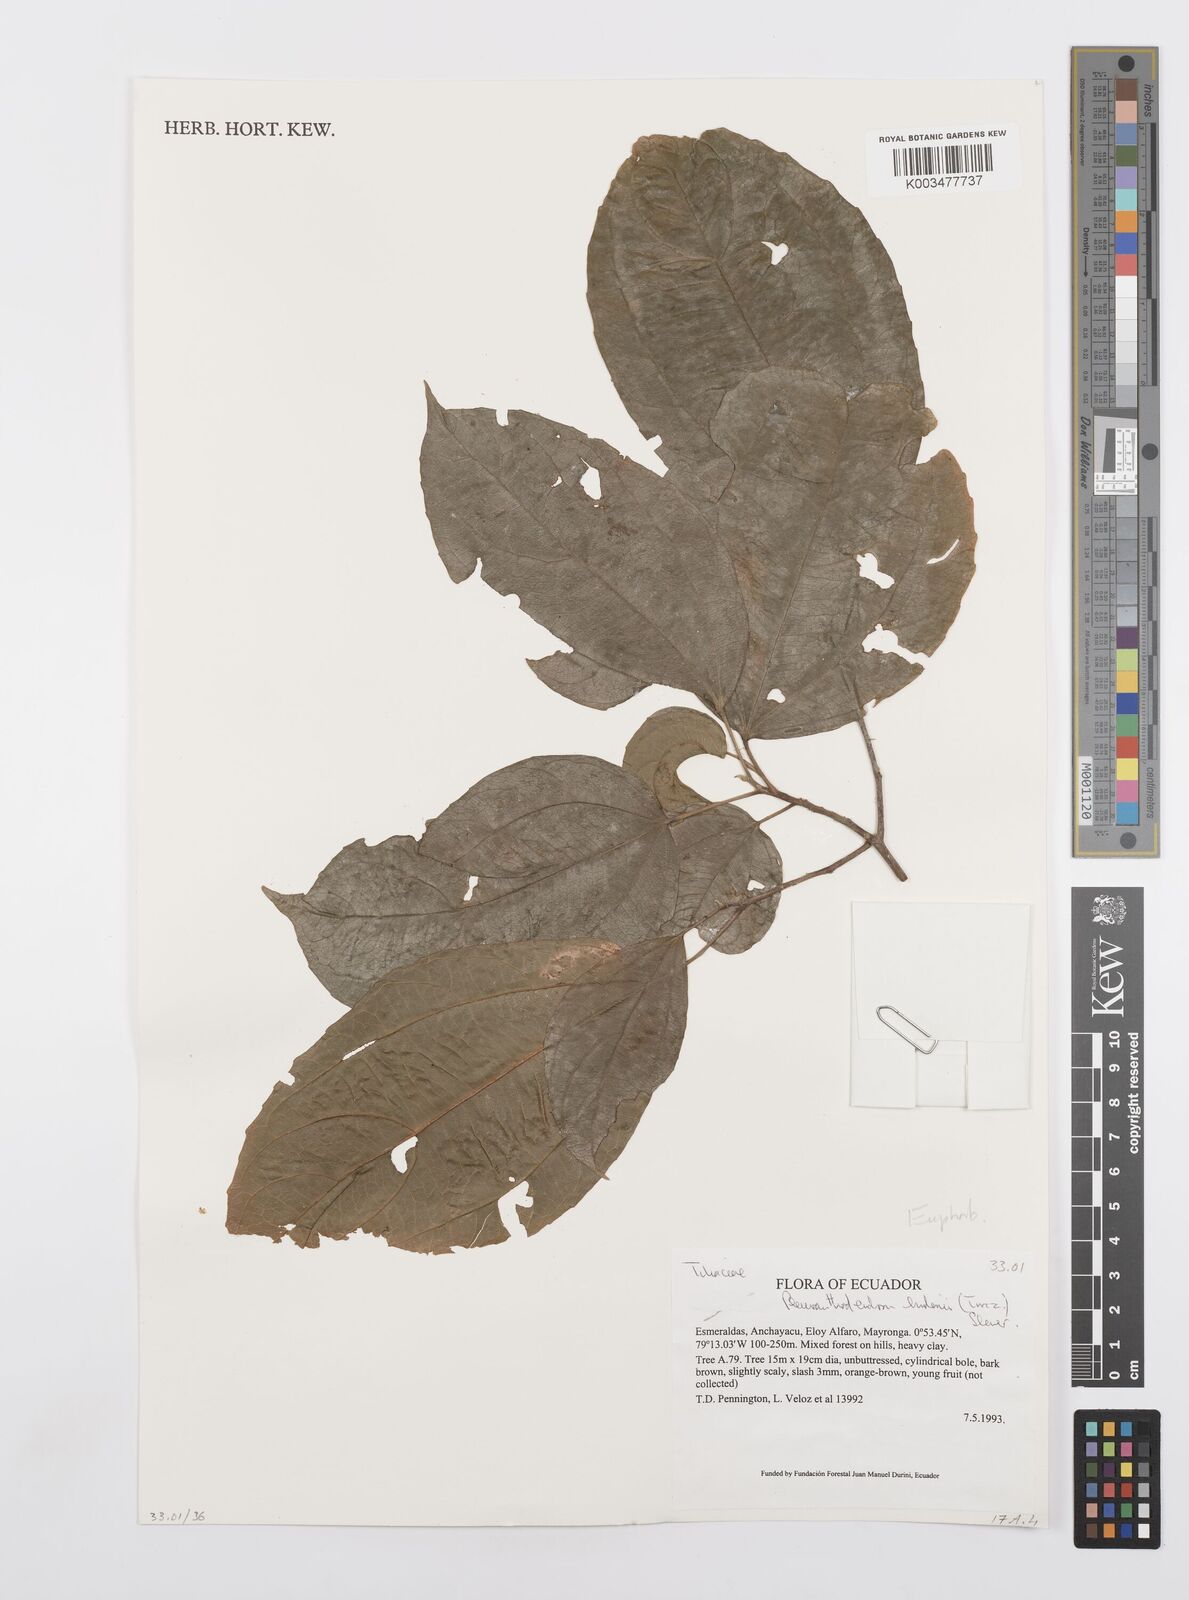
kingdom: Plantae
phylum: Tracheophyta
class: Magnoliopsida
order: Malpighiales
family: Salicaceae
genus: Pleuranthodendron
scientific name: Pleuranthodendron lindenii
